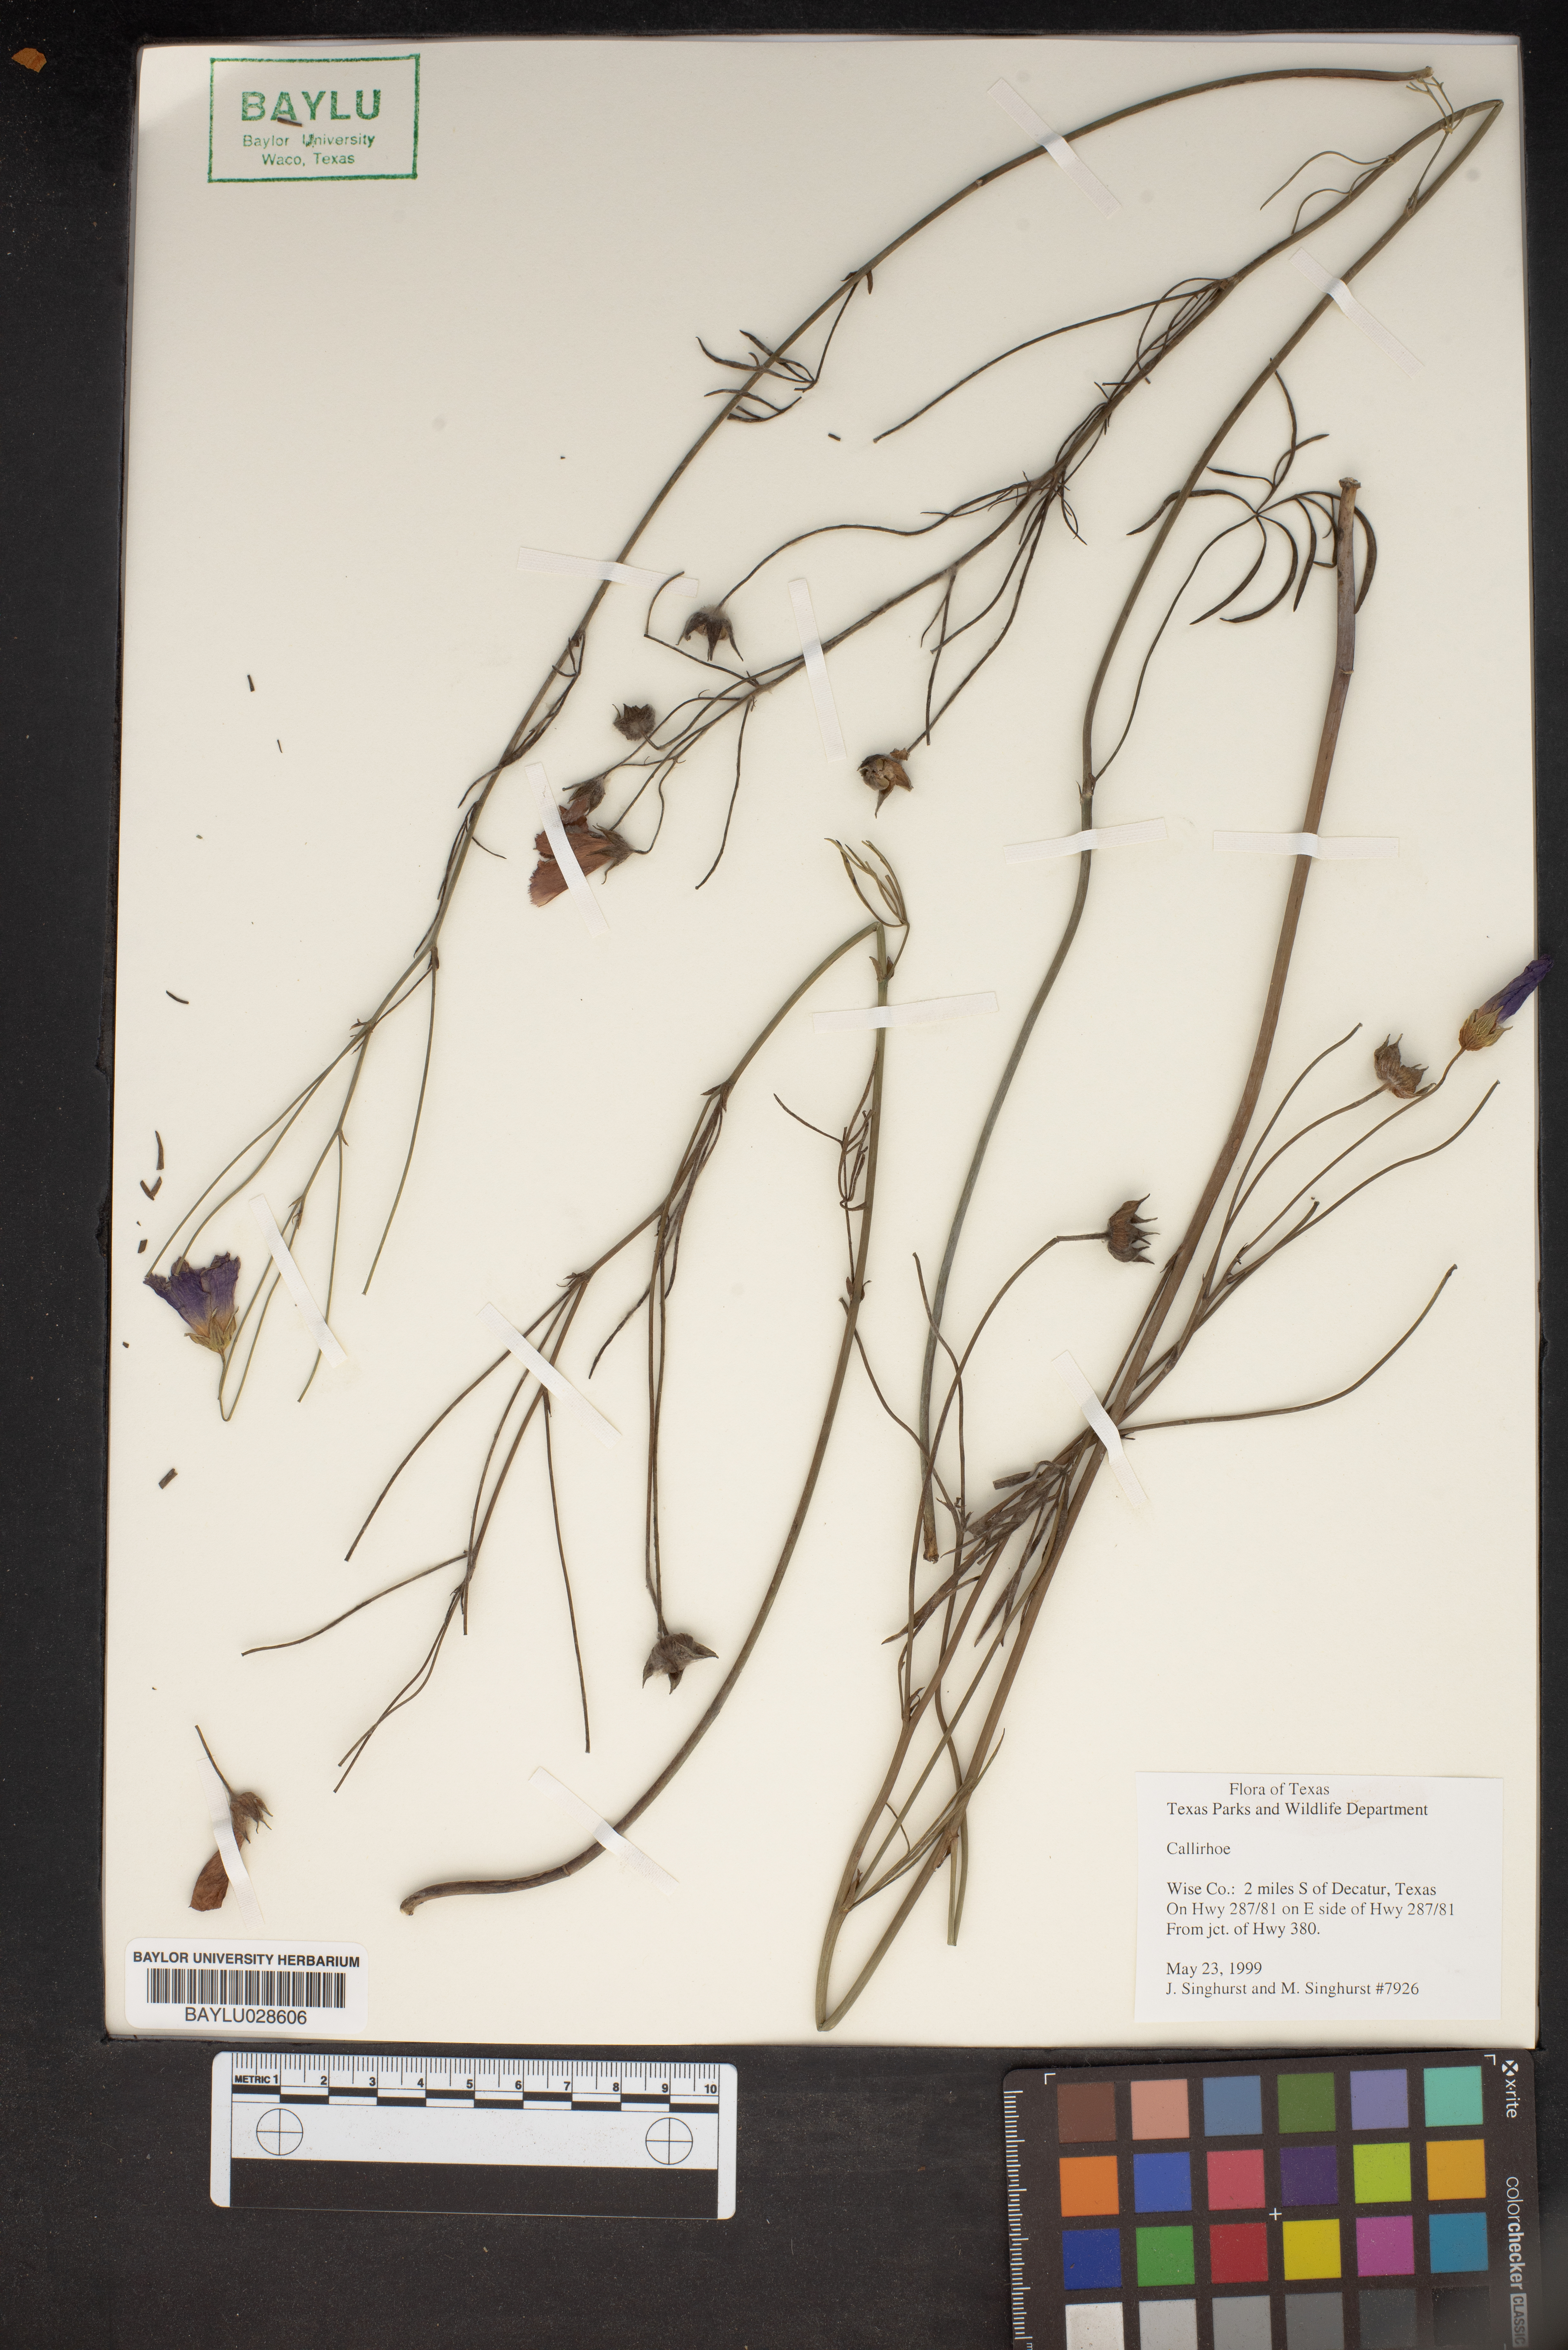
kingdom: Plantae
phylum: Tracheophyta
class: Magnoliopsida
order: Malvales
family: Malvaceae
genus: Callirhoe
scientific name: Callirhoe
